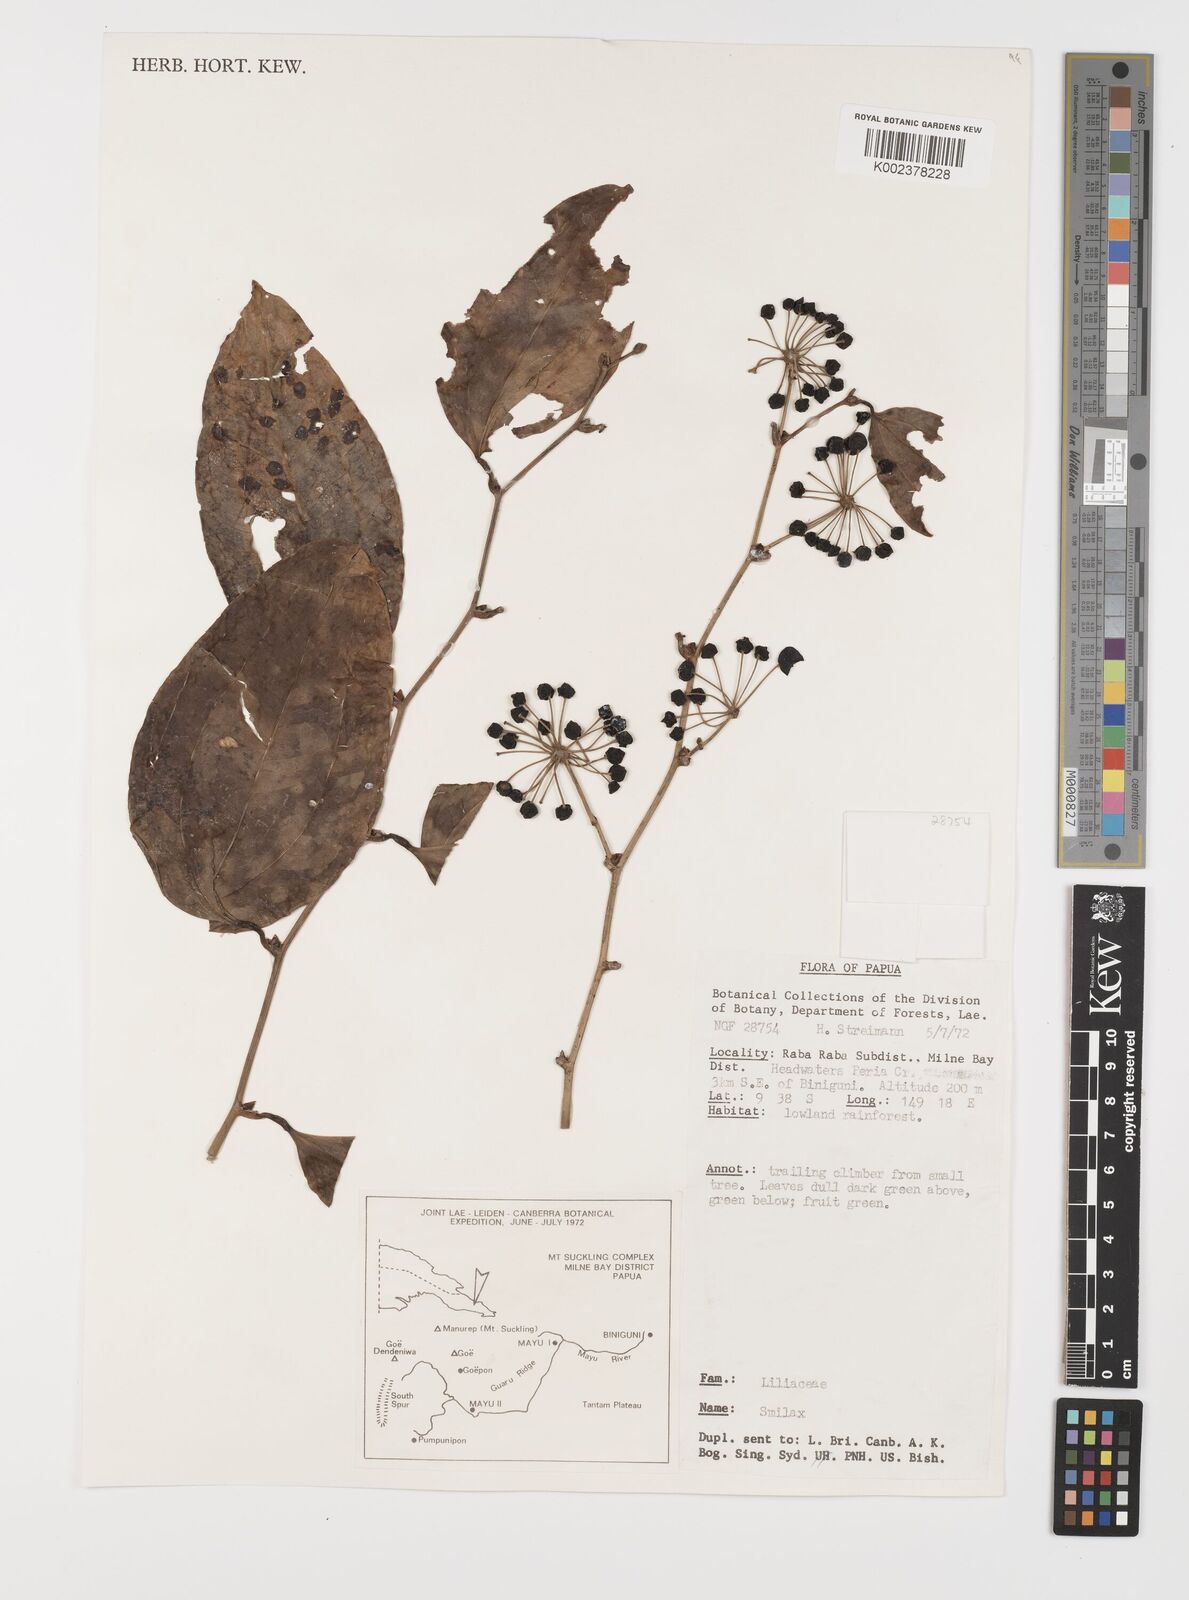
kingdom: Plantae
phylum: Tracheophyta
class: Liliopsida
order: Liliales
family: Smilacaceae
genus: Smilax
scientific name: Smilax
